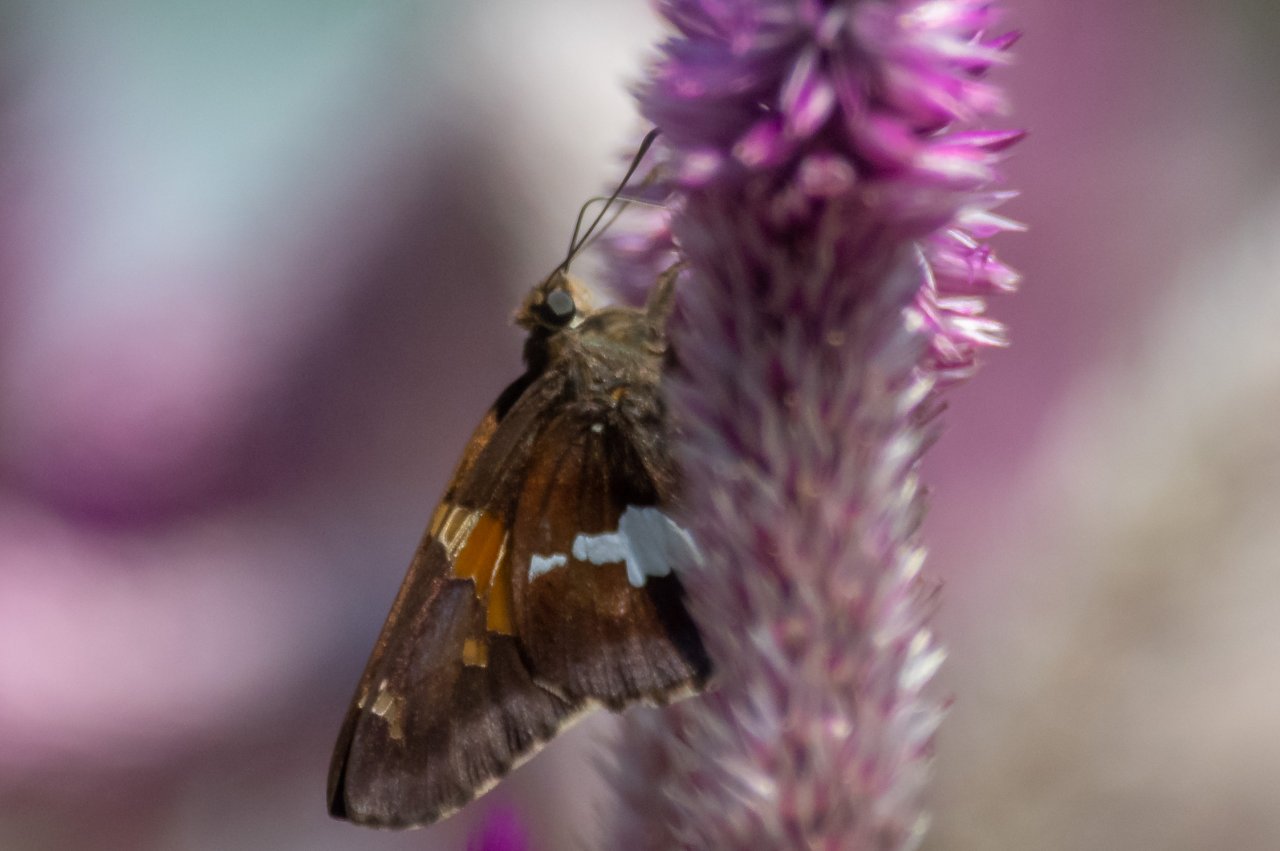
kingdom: Animalia
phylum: Arthropoda
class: Insecta
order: Lepidoptera
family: Hesperiidae
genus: Epargyreus
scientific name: Epargyreus clarus
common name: Silver-spotted Skipper
